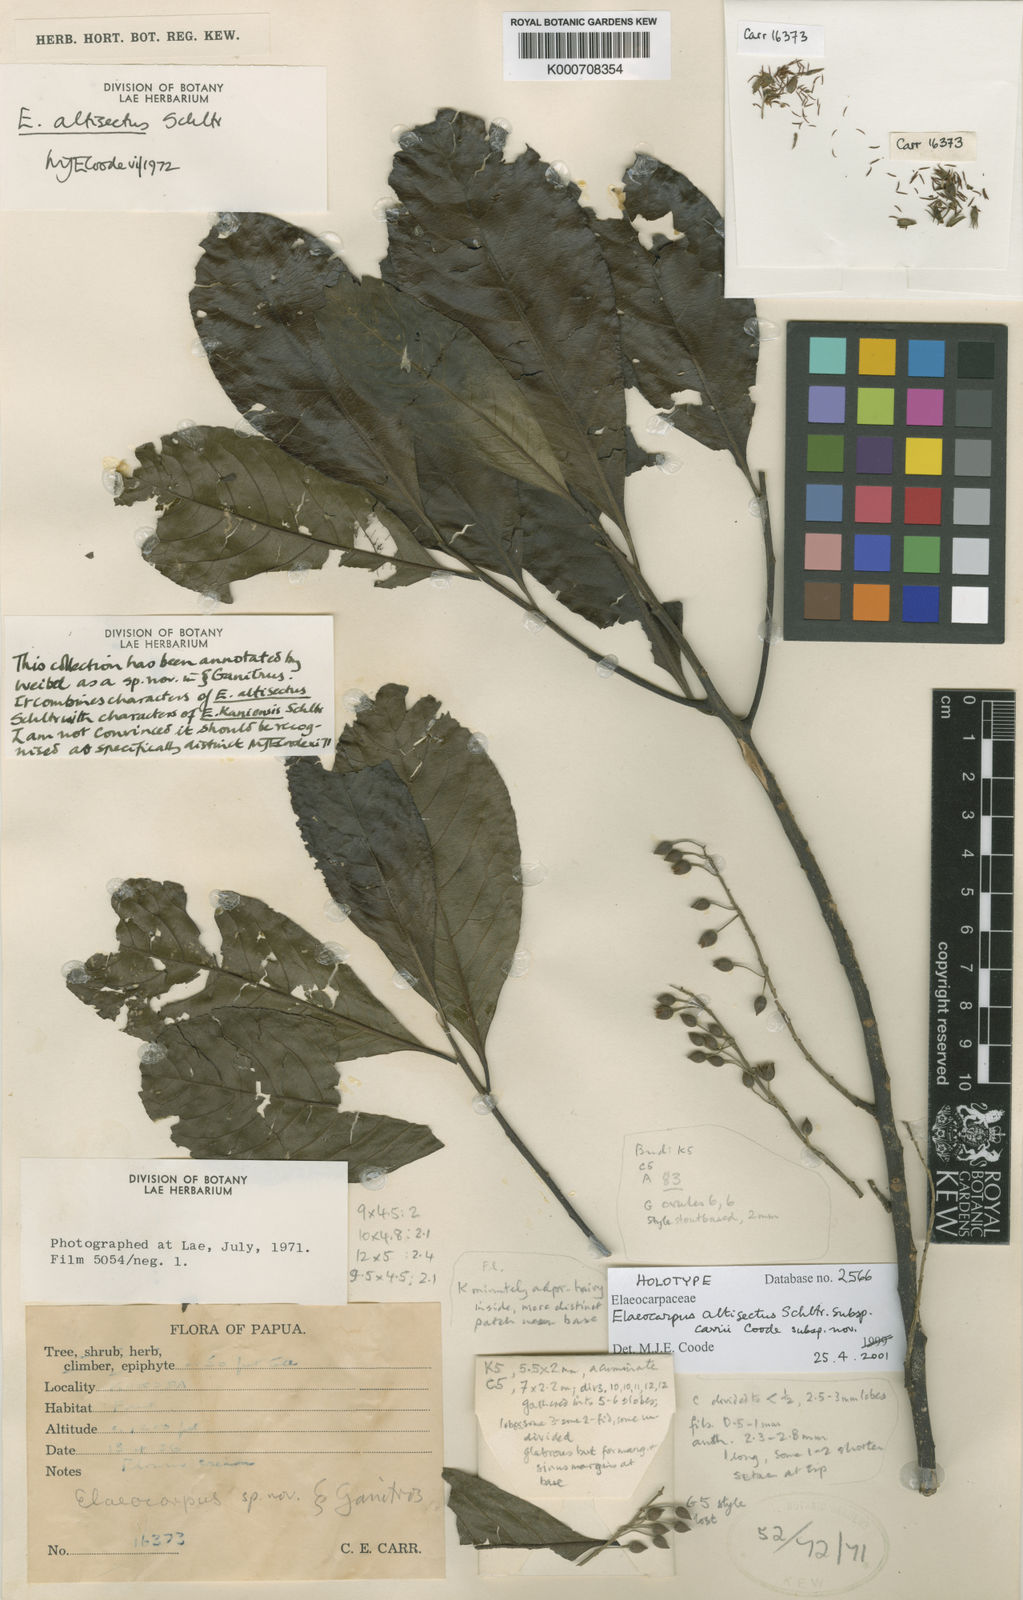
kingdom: Plantae
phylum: Tracheophyta
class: Magnoliopsida
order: Oxalidales
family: Elaeocarpaceae
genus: Elaeocarpus
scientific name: Elaeocarpus altisectus
